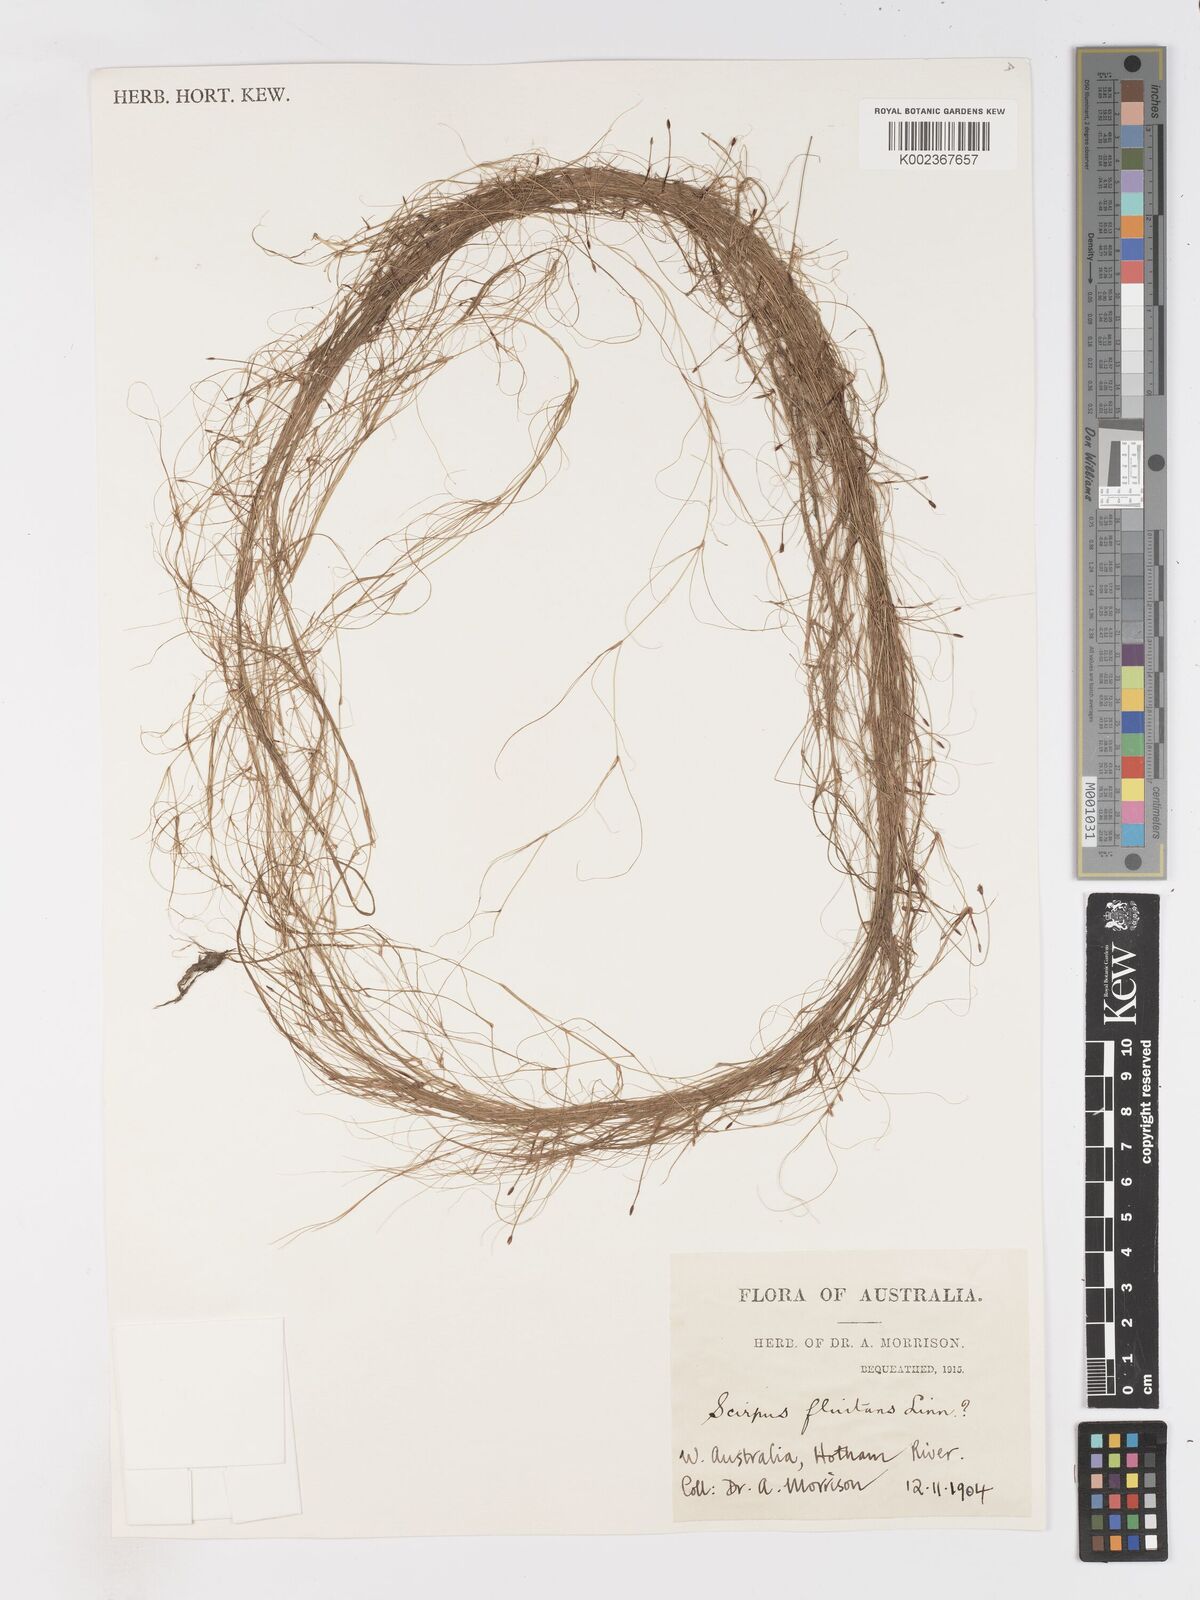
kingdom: Plantae
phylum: Tracheophyta
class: Liliopsida
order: Poales
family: Cyperaceae
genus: Isolepis
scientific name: Isolepis fluitans
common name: Floating club-rush
